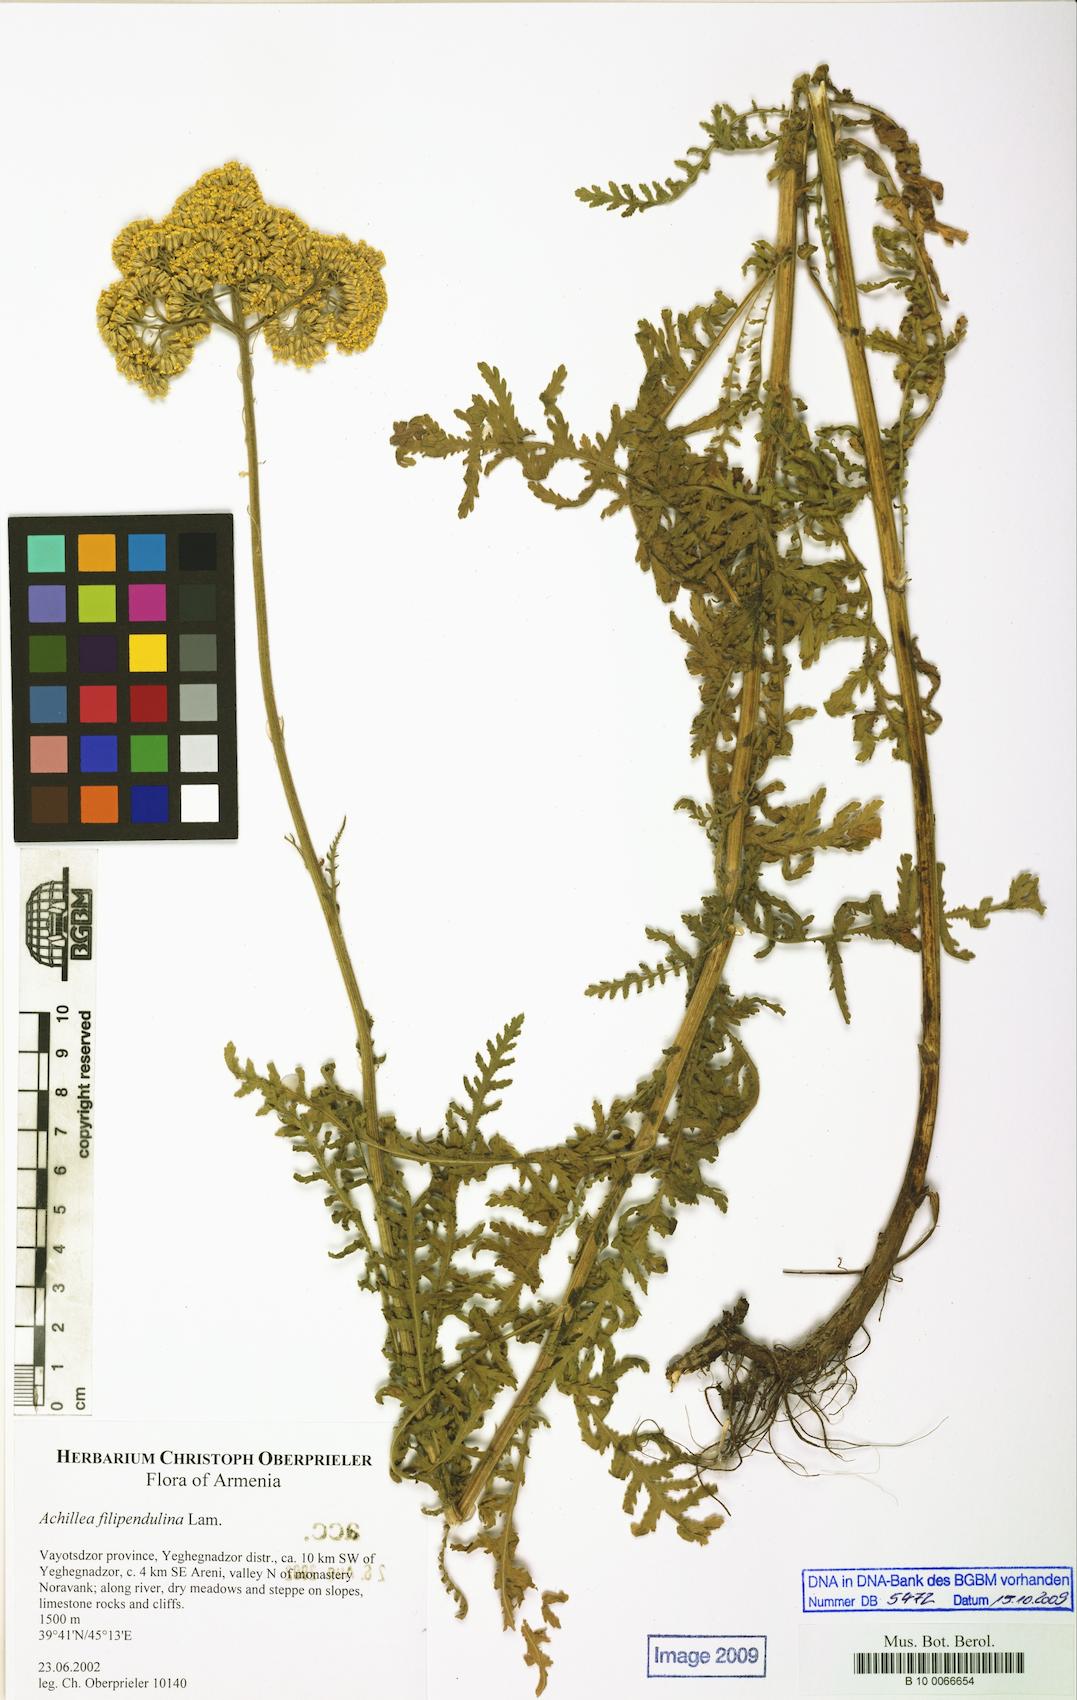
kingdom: Plantae
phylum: Tracheophyta
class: Magnoliopsida
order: Asterales
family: Asteraceae
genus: Achillea
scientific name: Achillea filipendulina
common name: Fernleaf yarrow
